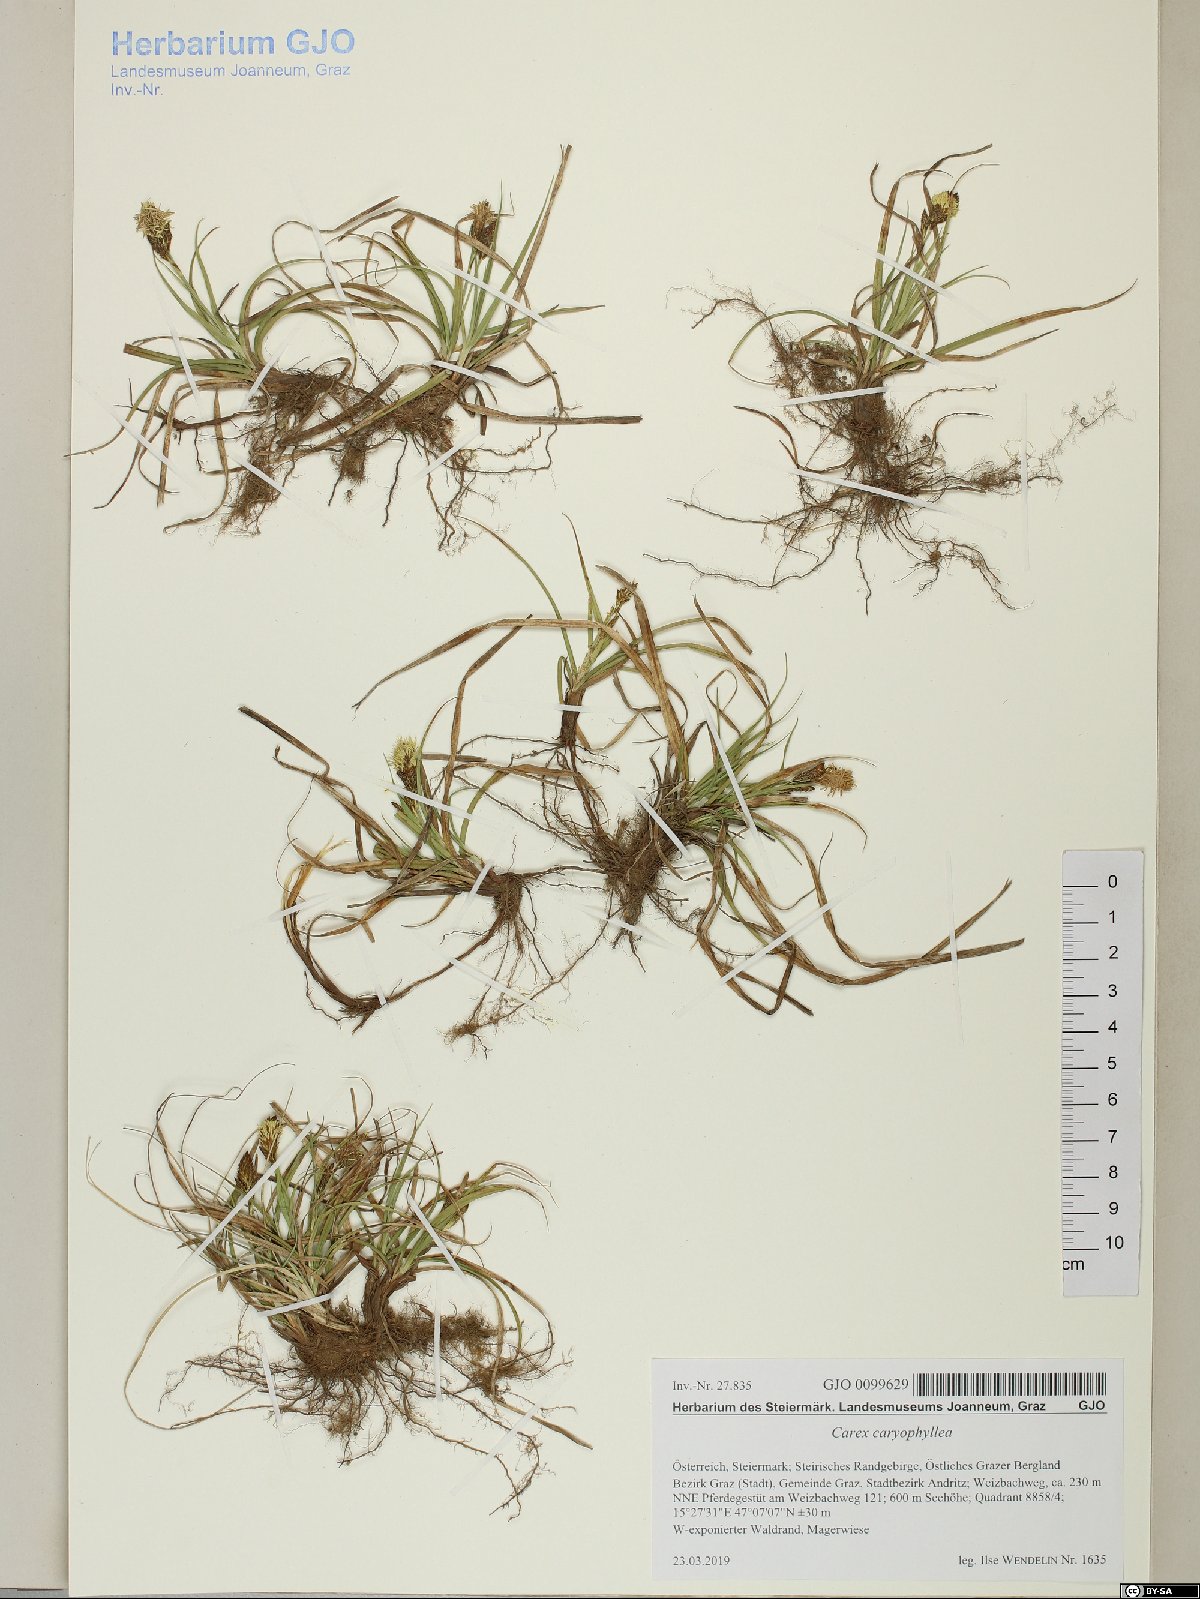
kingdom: Plantae
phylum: Tracheophyta
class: Liliopsida
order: Poales
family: Cyperaceae
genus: Carex
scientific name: Carex caryophyllea
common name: Spring sedge
